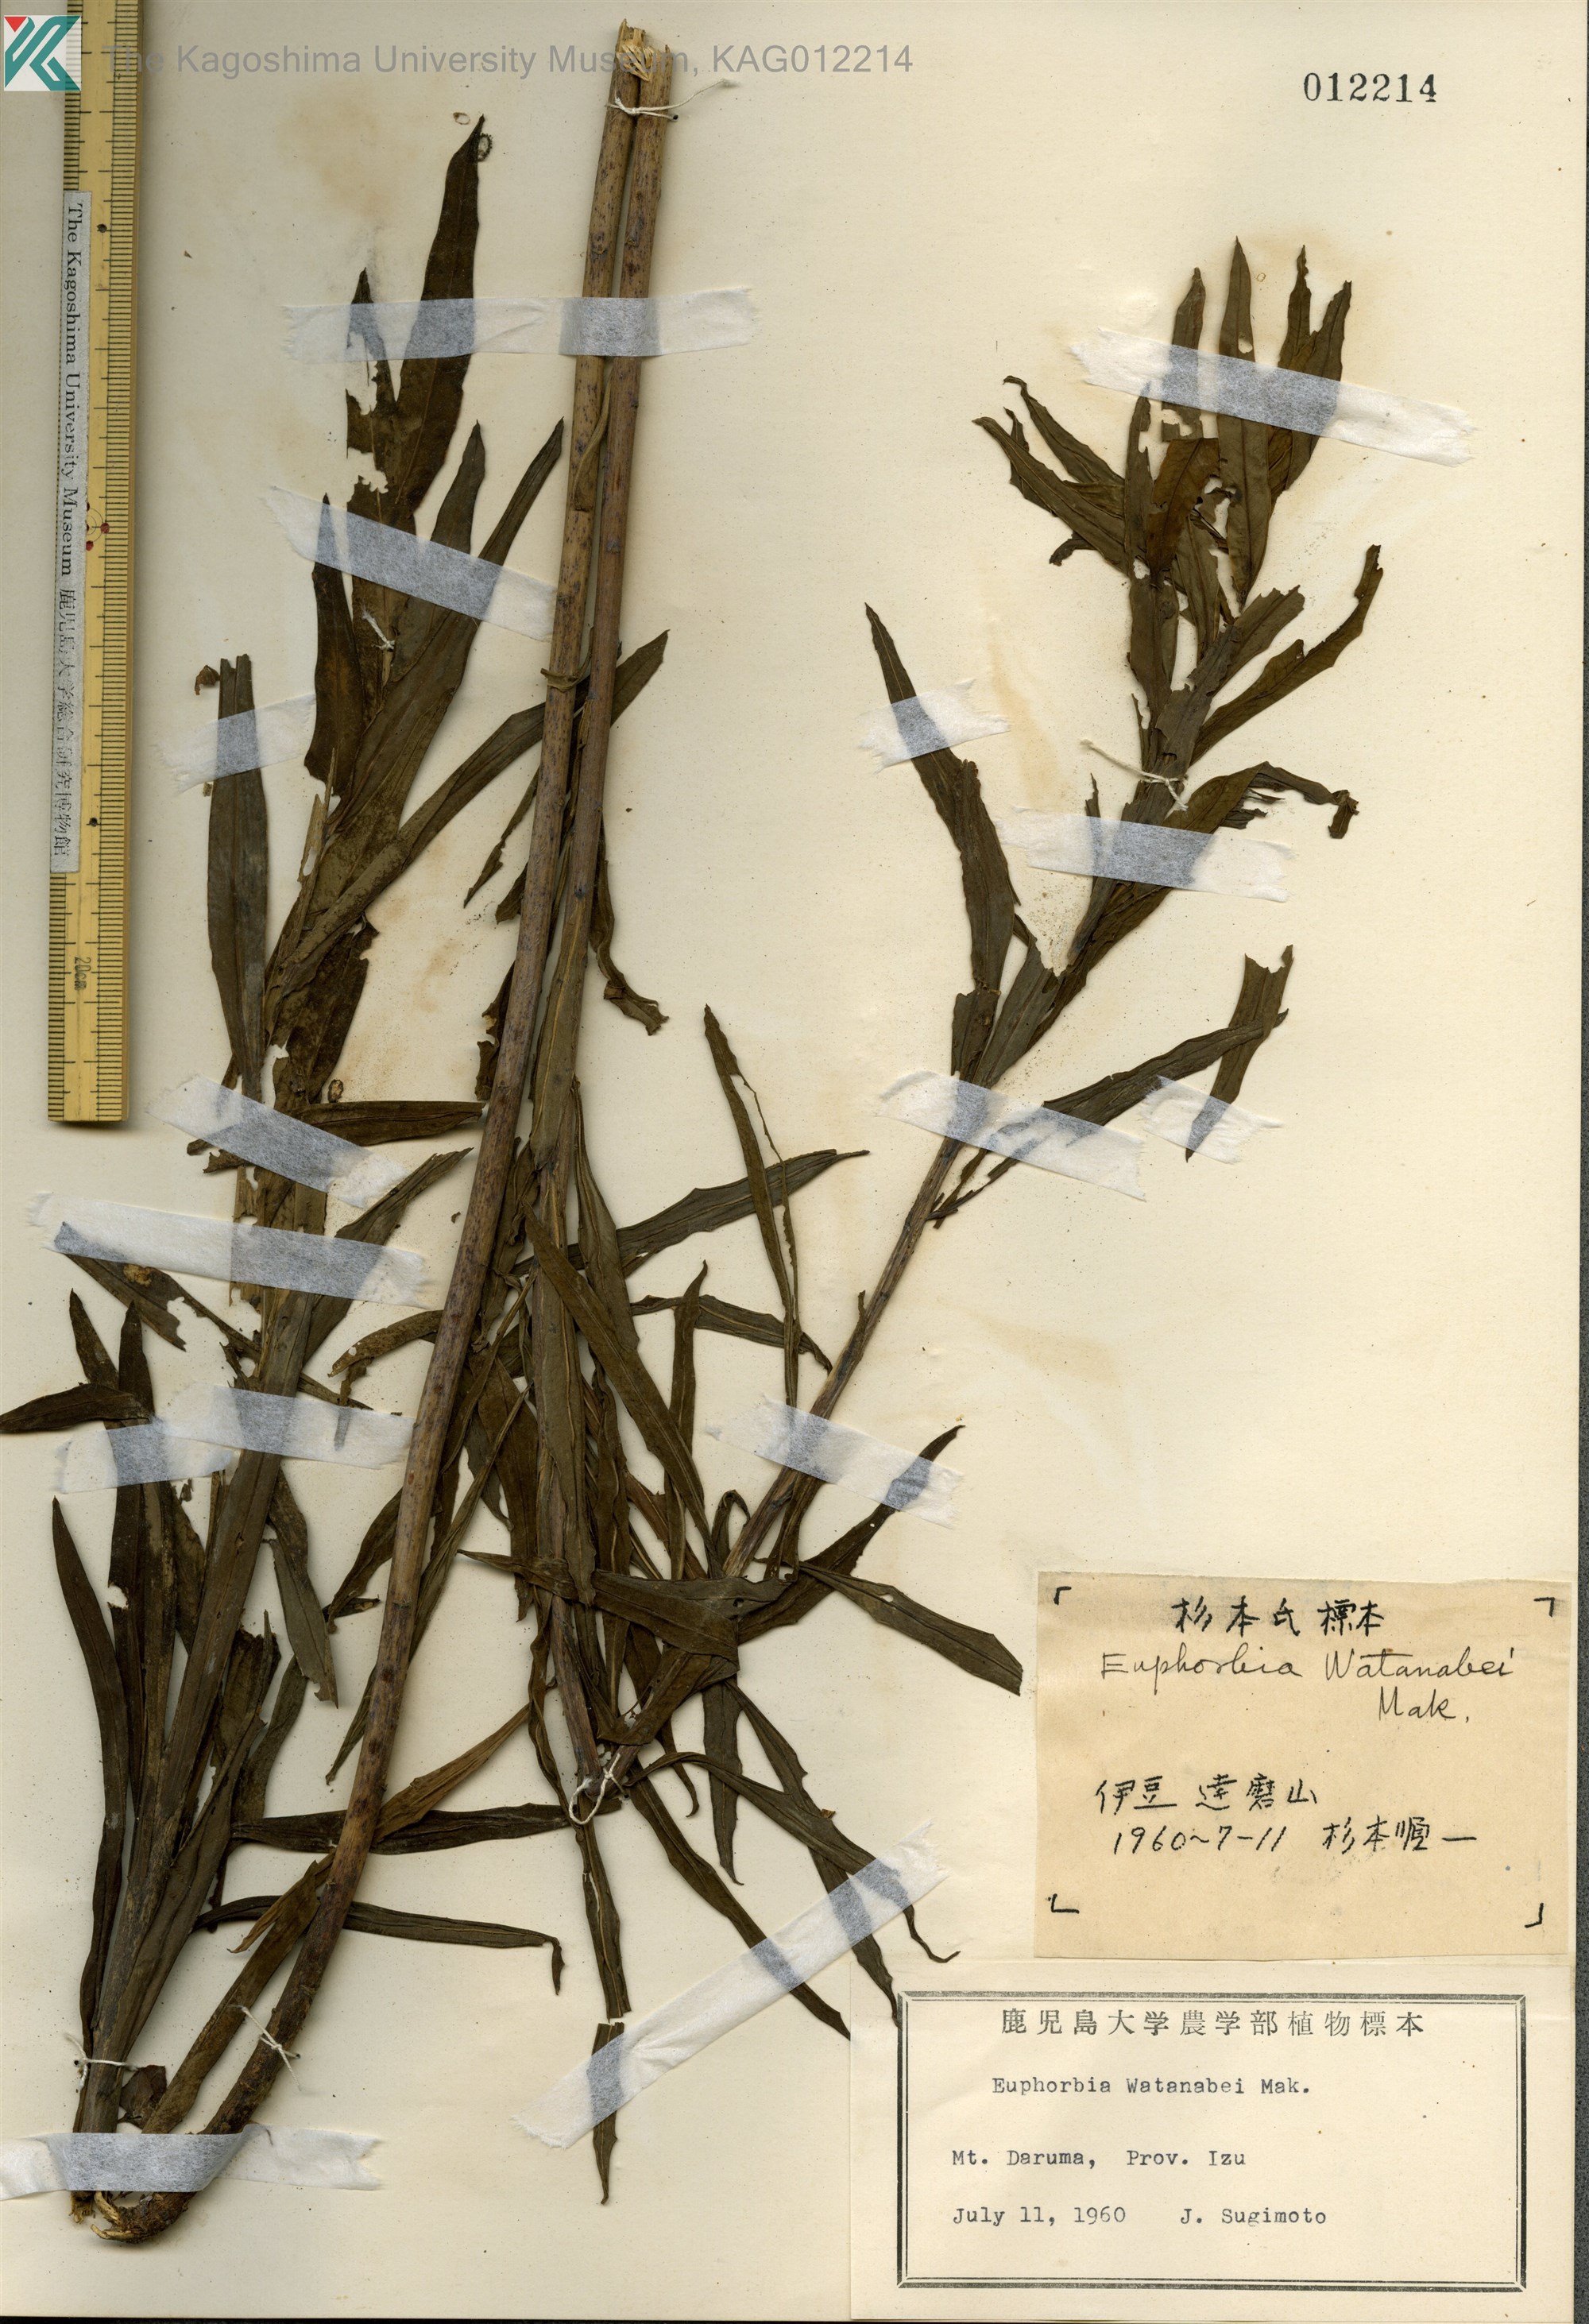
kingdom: Plantae
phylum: Tracheophyta
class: Magnoliopsida
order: Malpighiales
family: Euphorbiaceae
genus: Euphorbia
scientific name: Euphorbia watanabei
